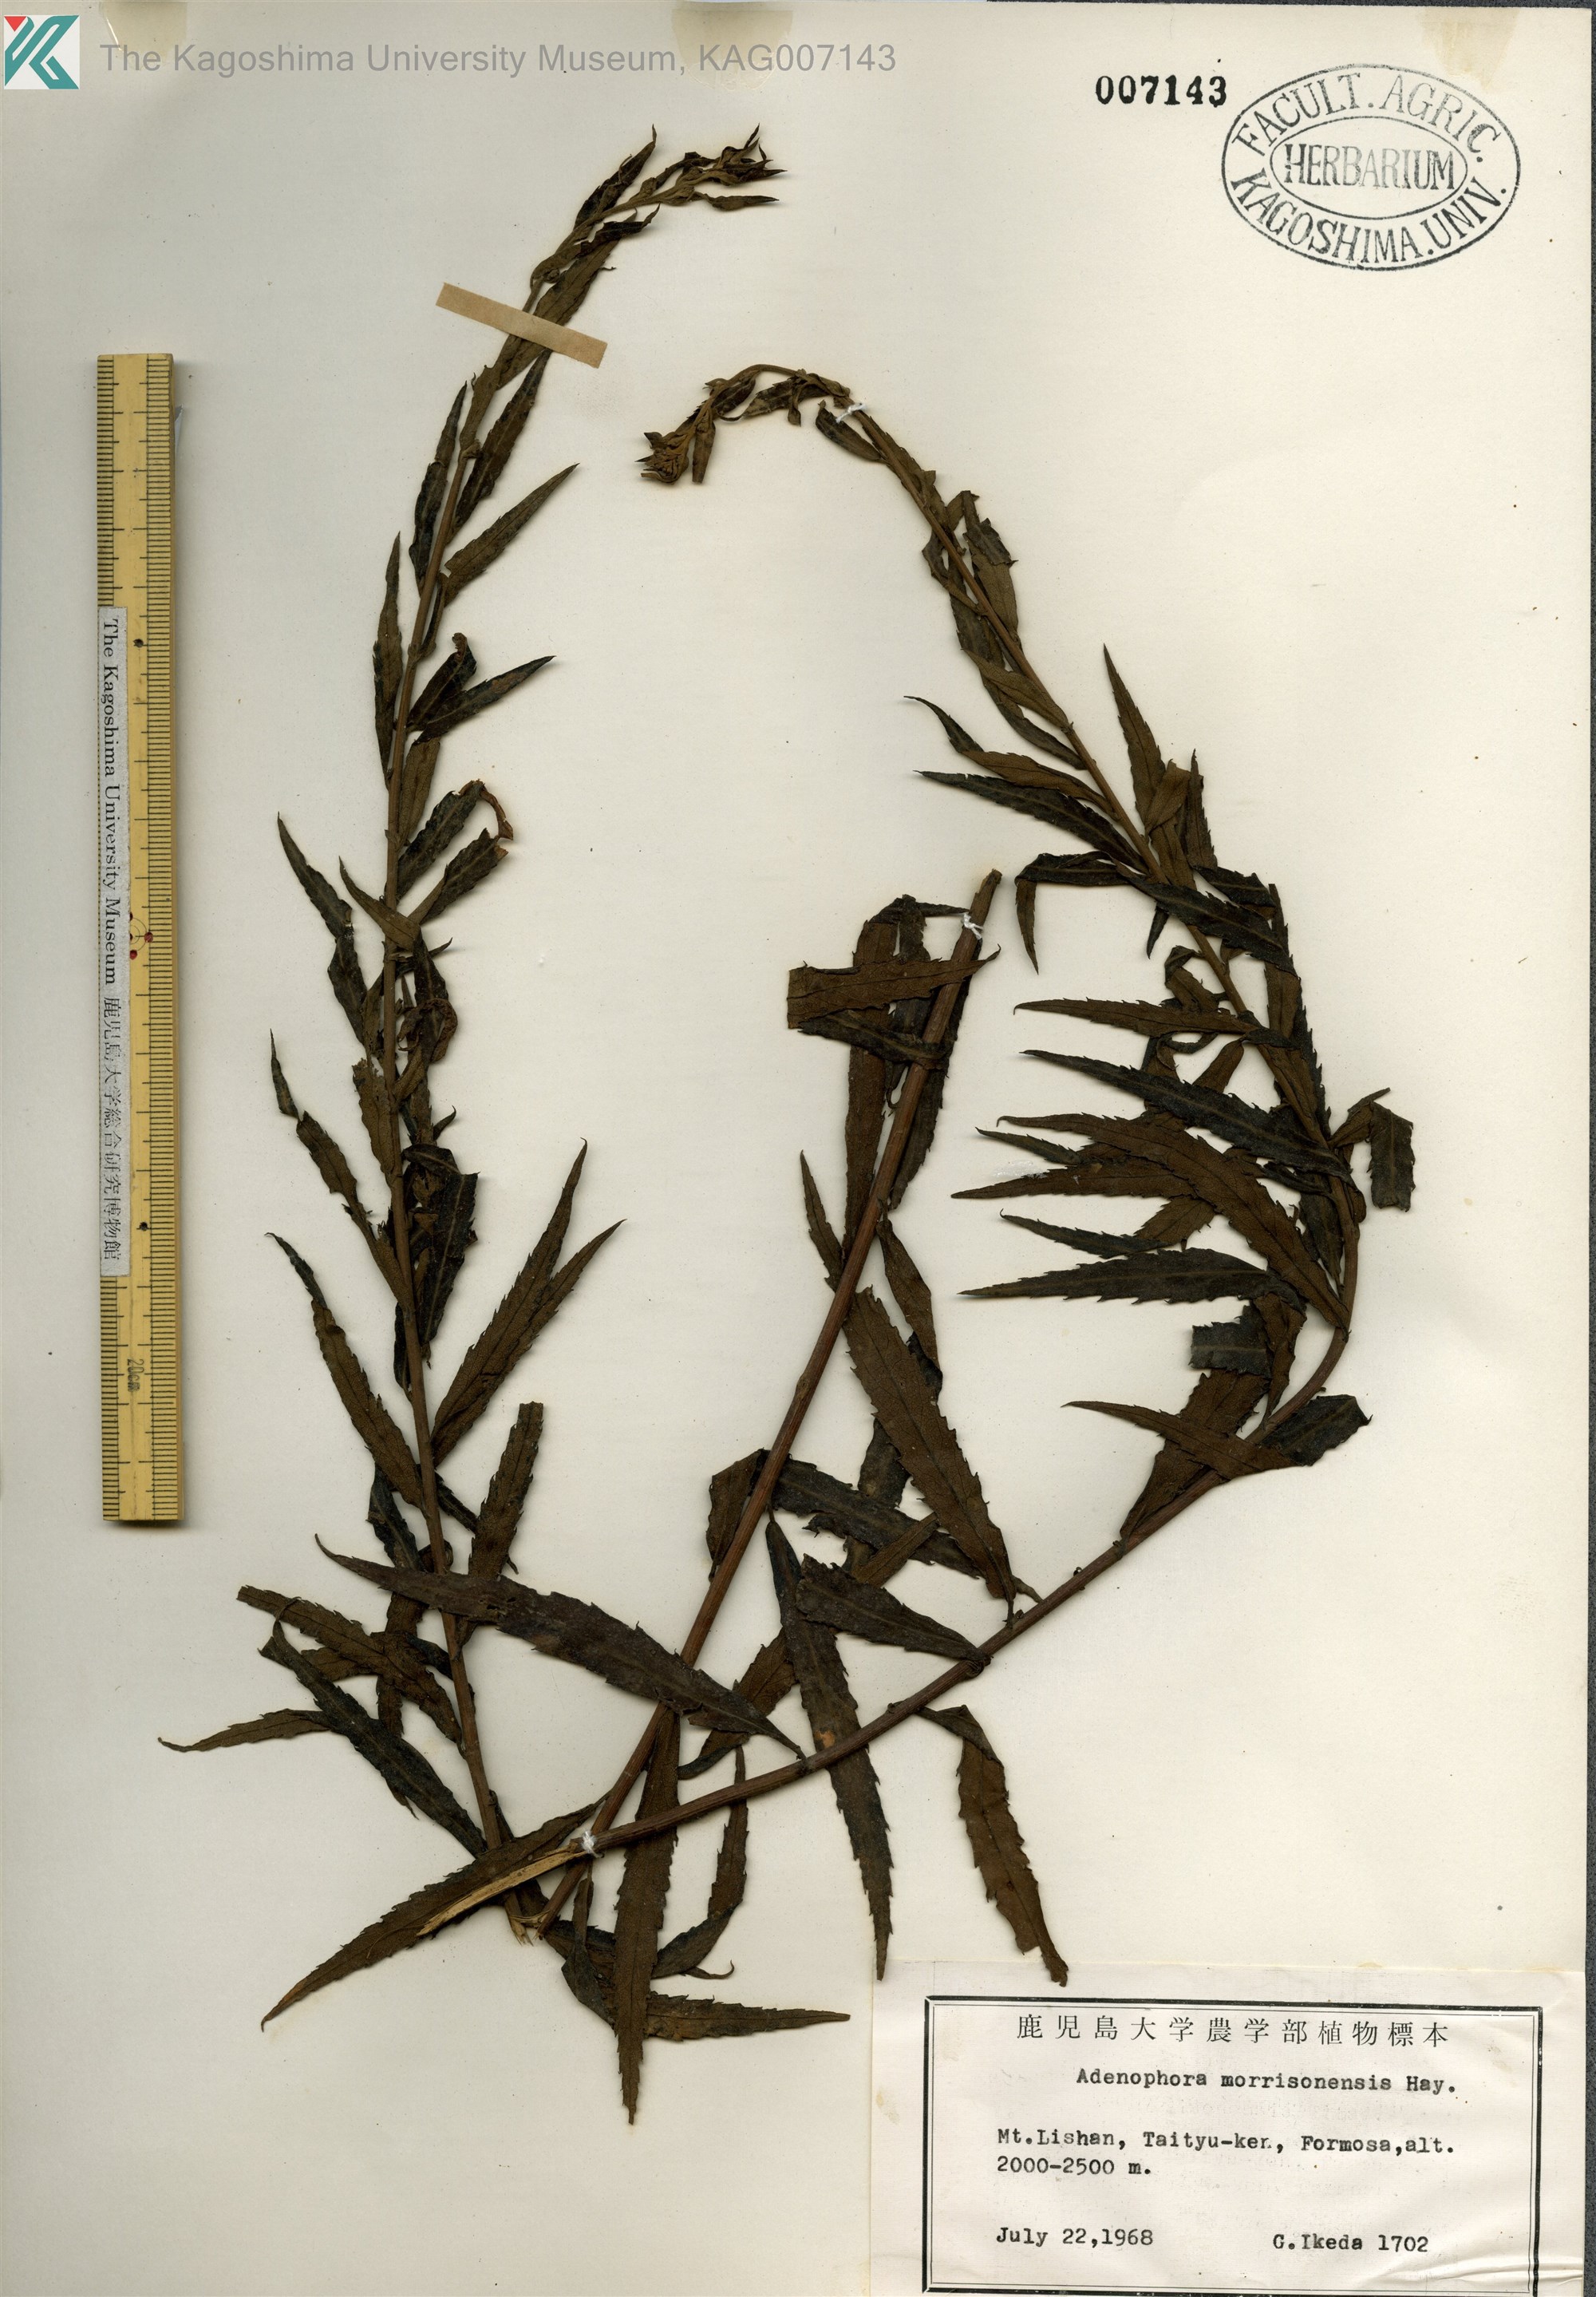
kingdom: Plantae
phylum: Tracheophyta
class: Magnoliopsida
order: Asterales
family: Campanulaceae
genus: Adenophora
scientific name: Adenophora morrisonensis
